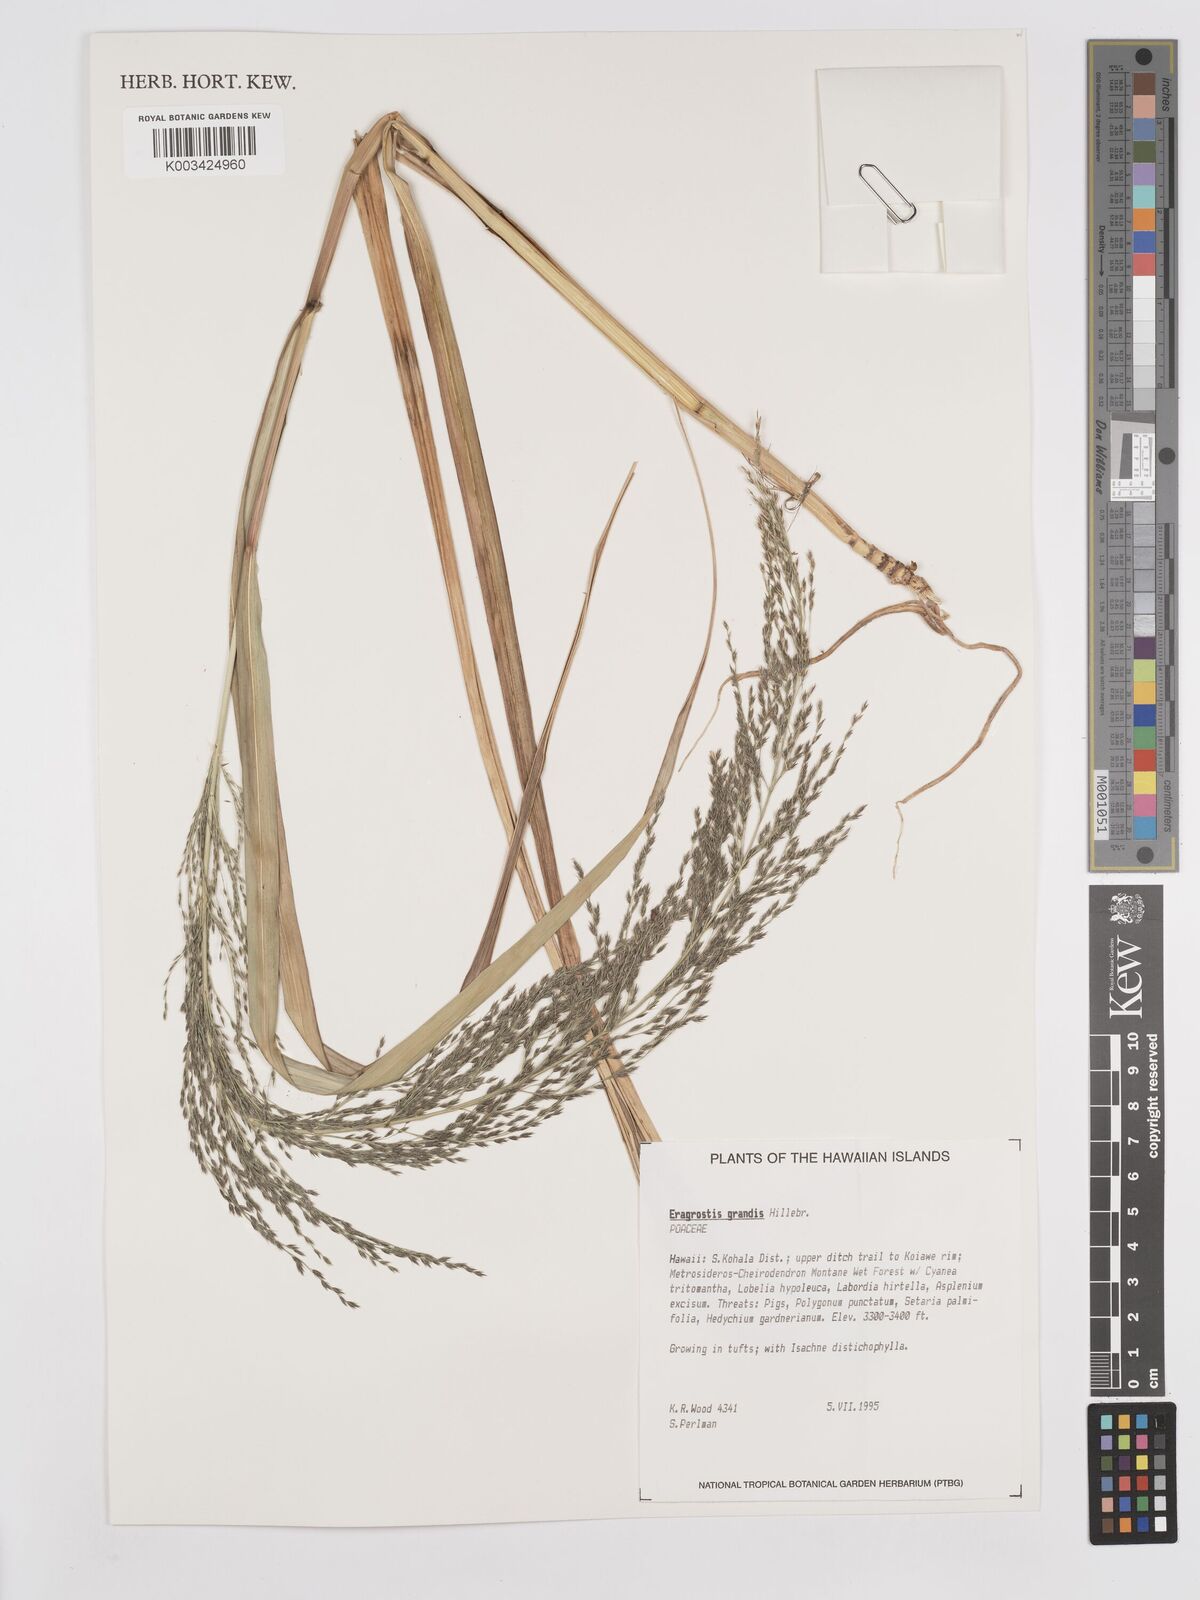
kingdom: Plantae
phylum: Tracheophyta
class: Liliopsida
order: Poales
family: Poaceae
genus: Eragrostis
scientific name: Eragrostis grandis
